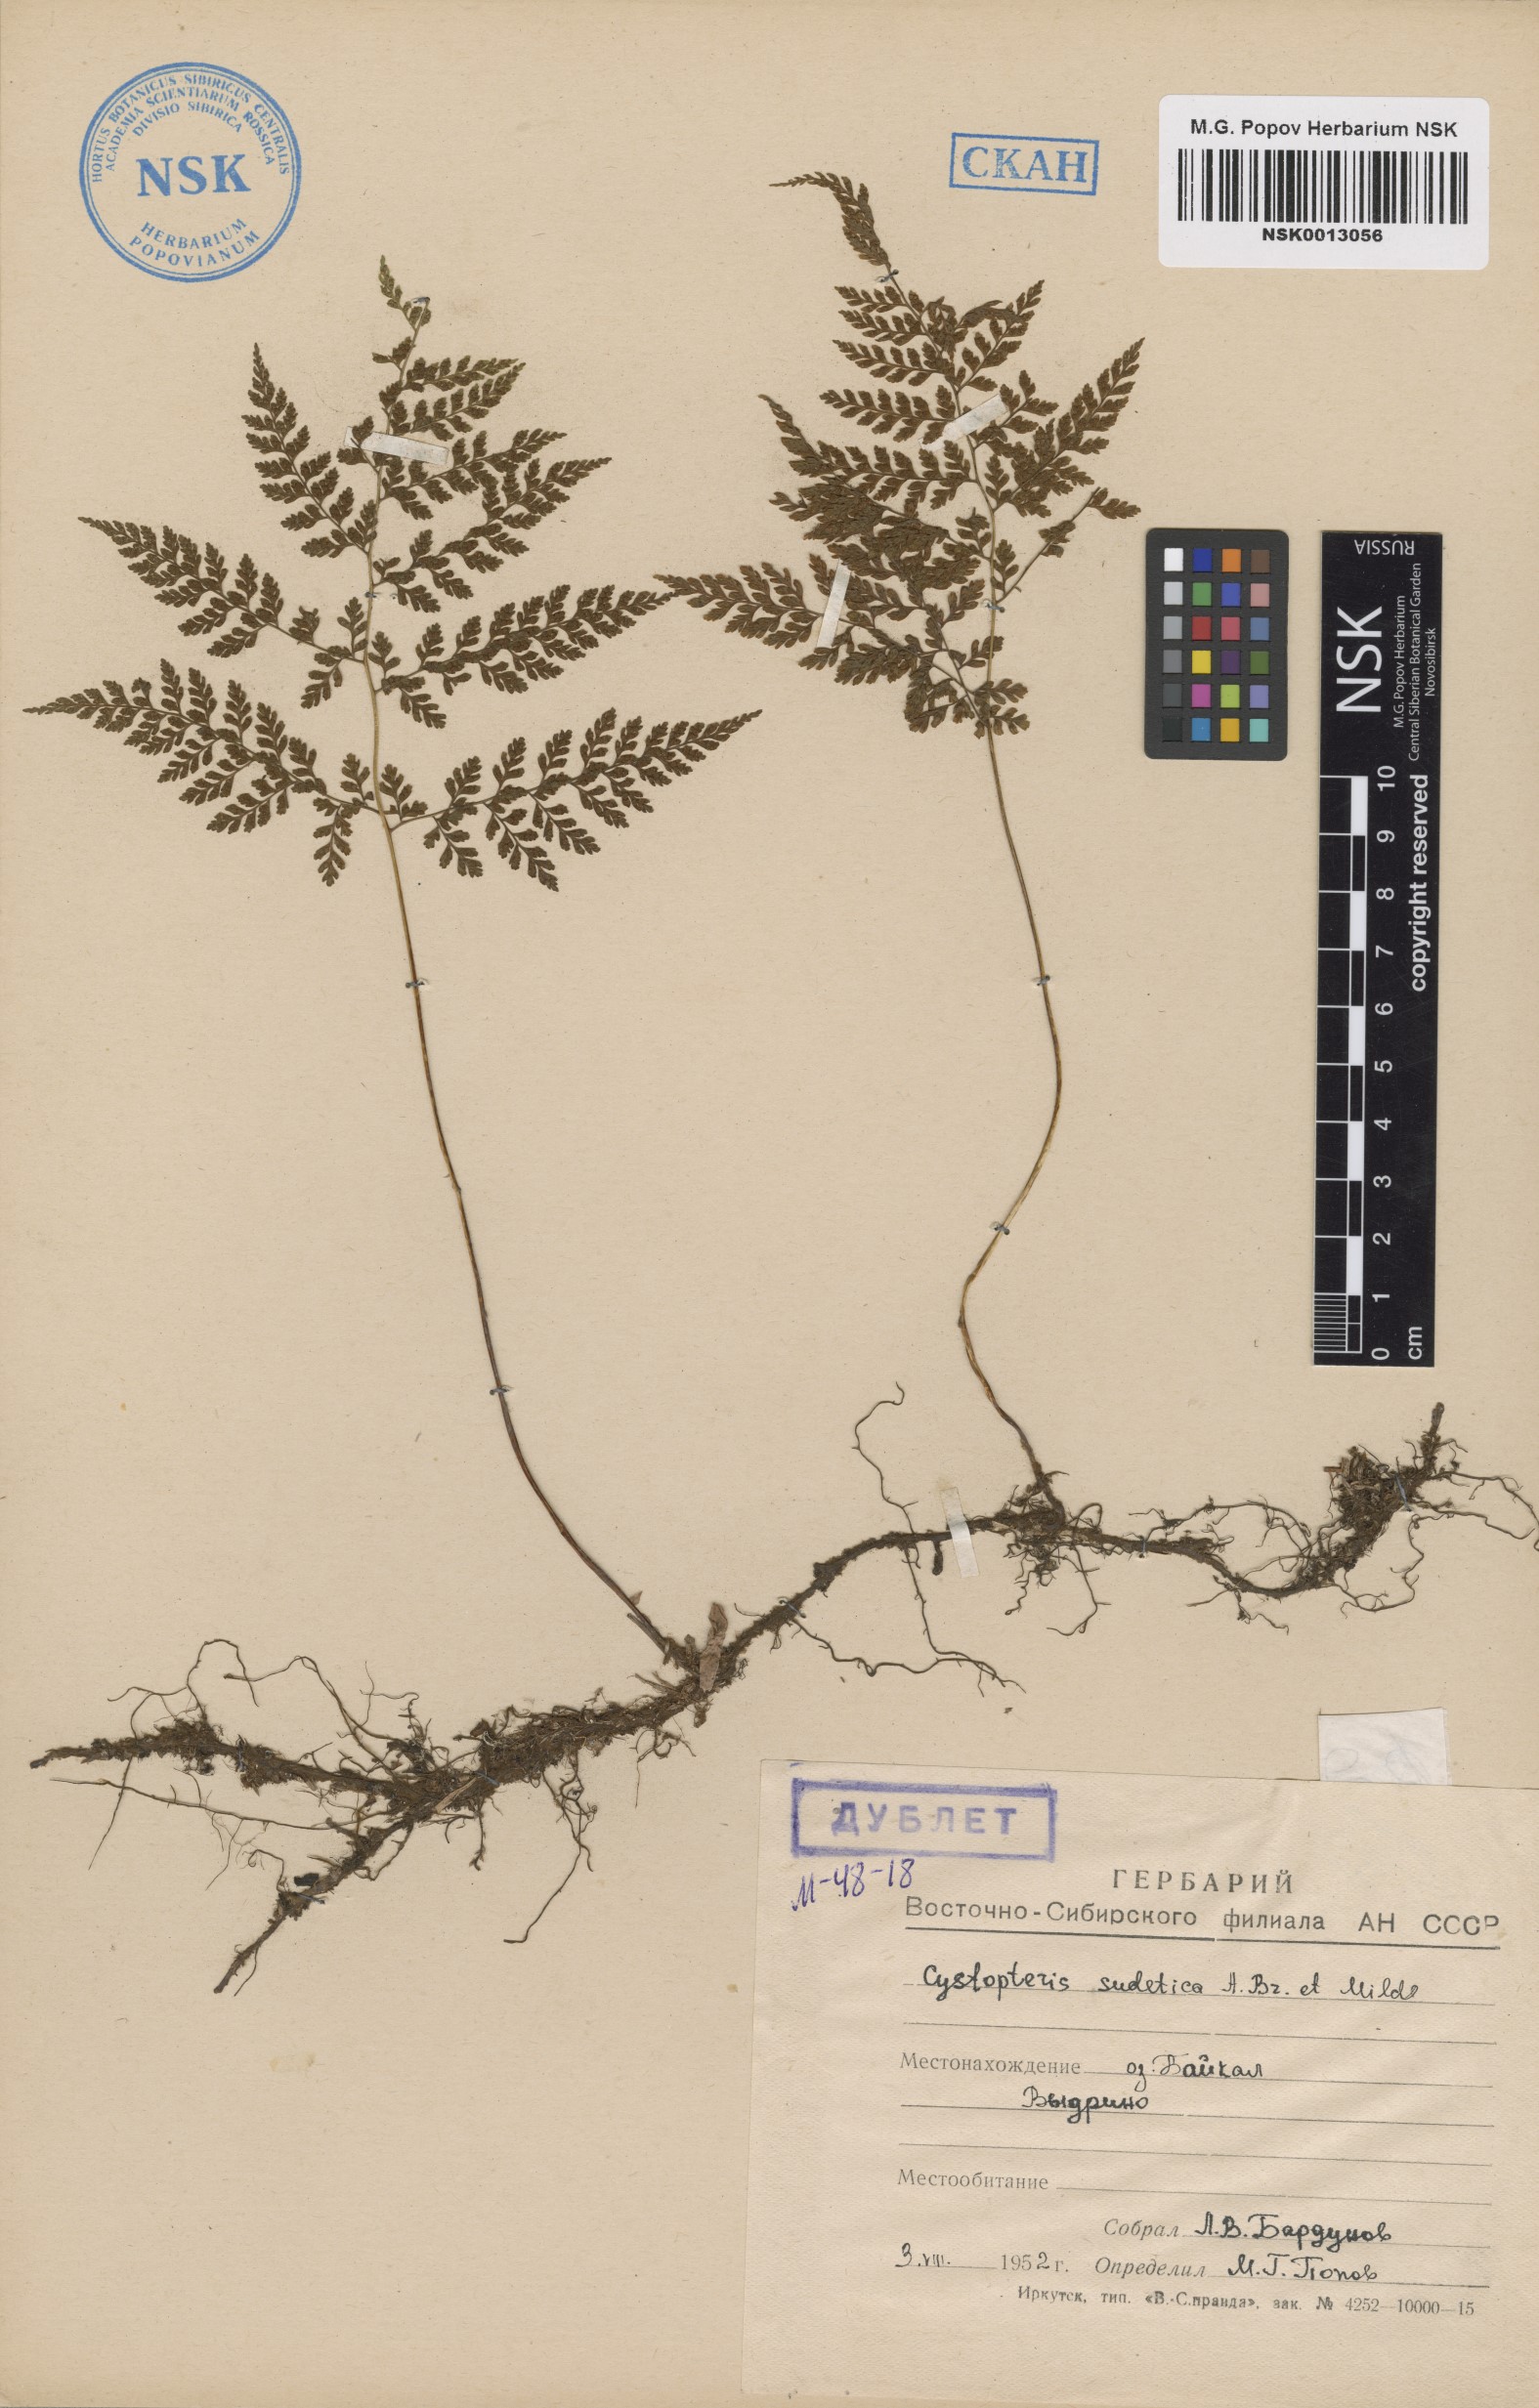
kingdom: Plantae
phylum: Tracheophyta
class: Polypodiopsida
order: Polypodiales
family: Cystopteridaceae
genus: Cystopteris
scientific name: Cystopteris sudetica
